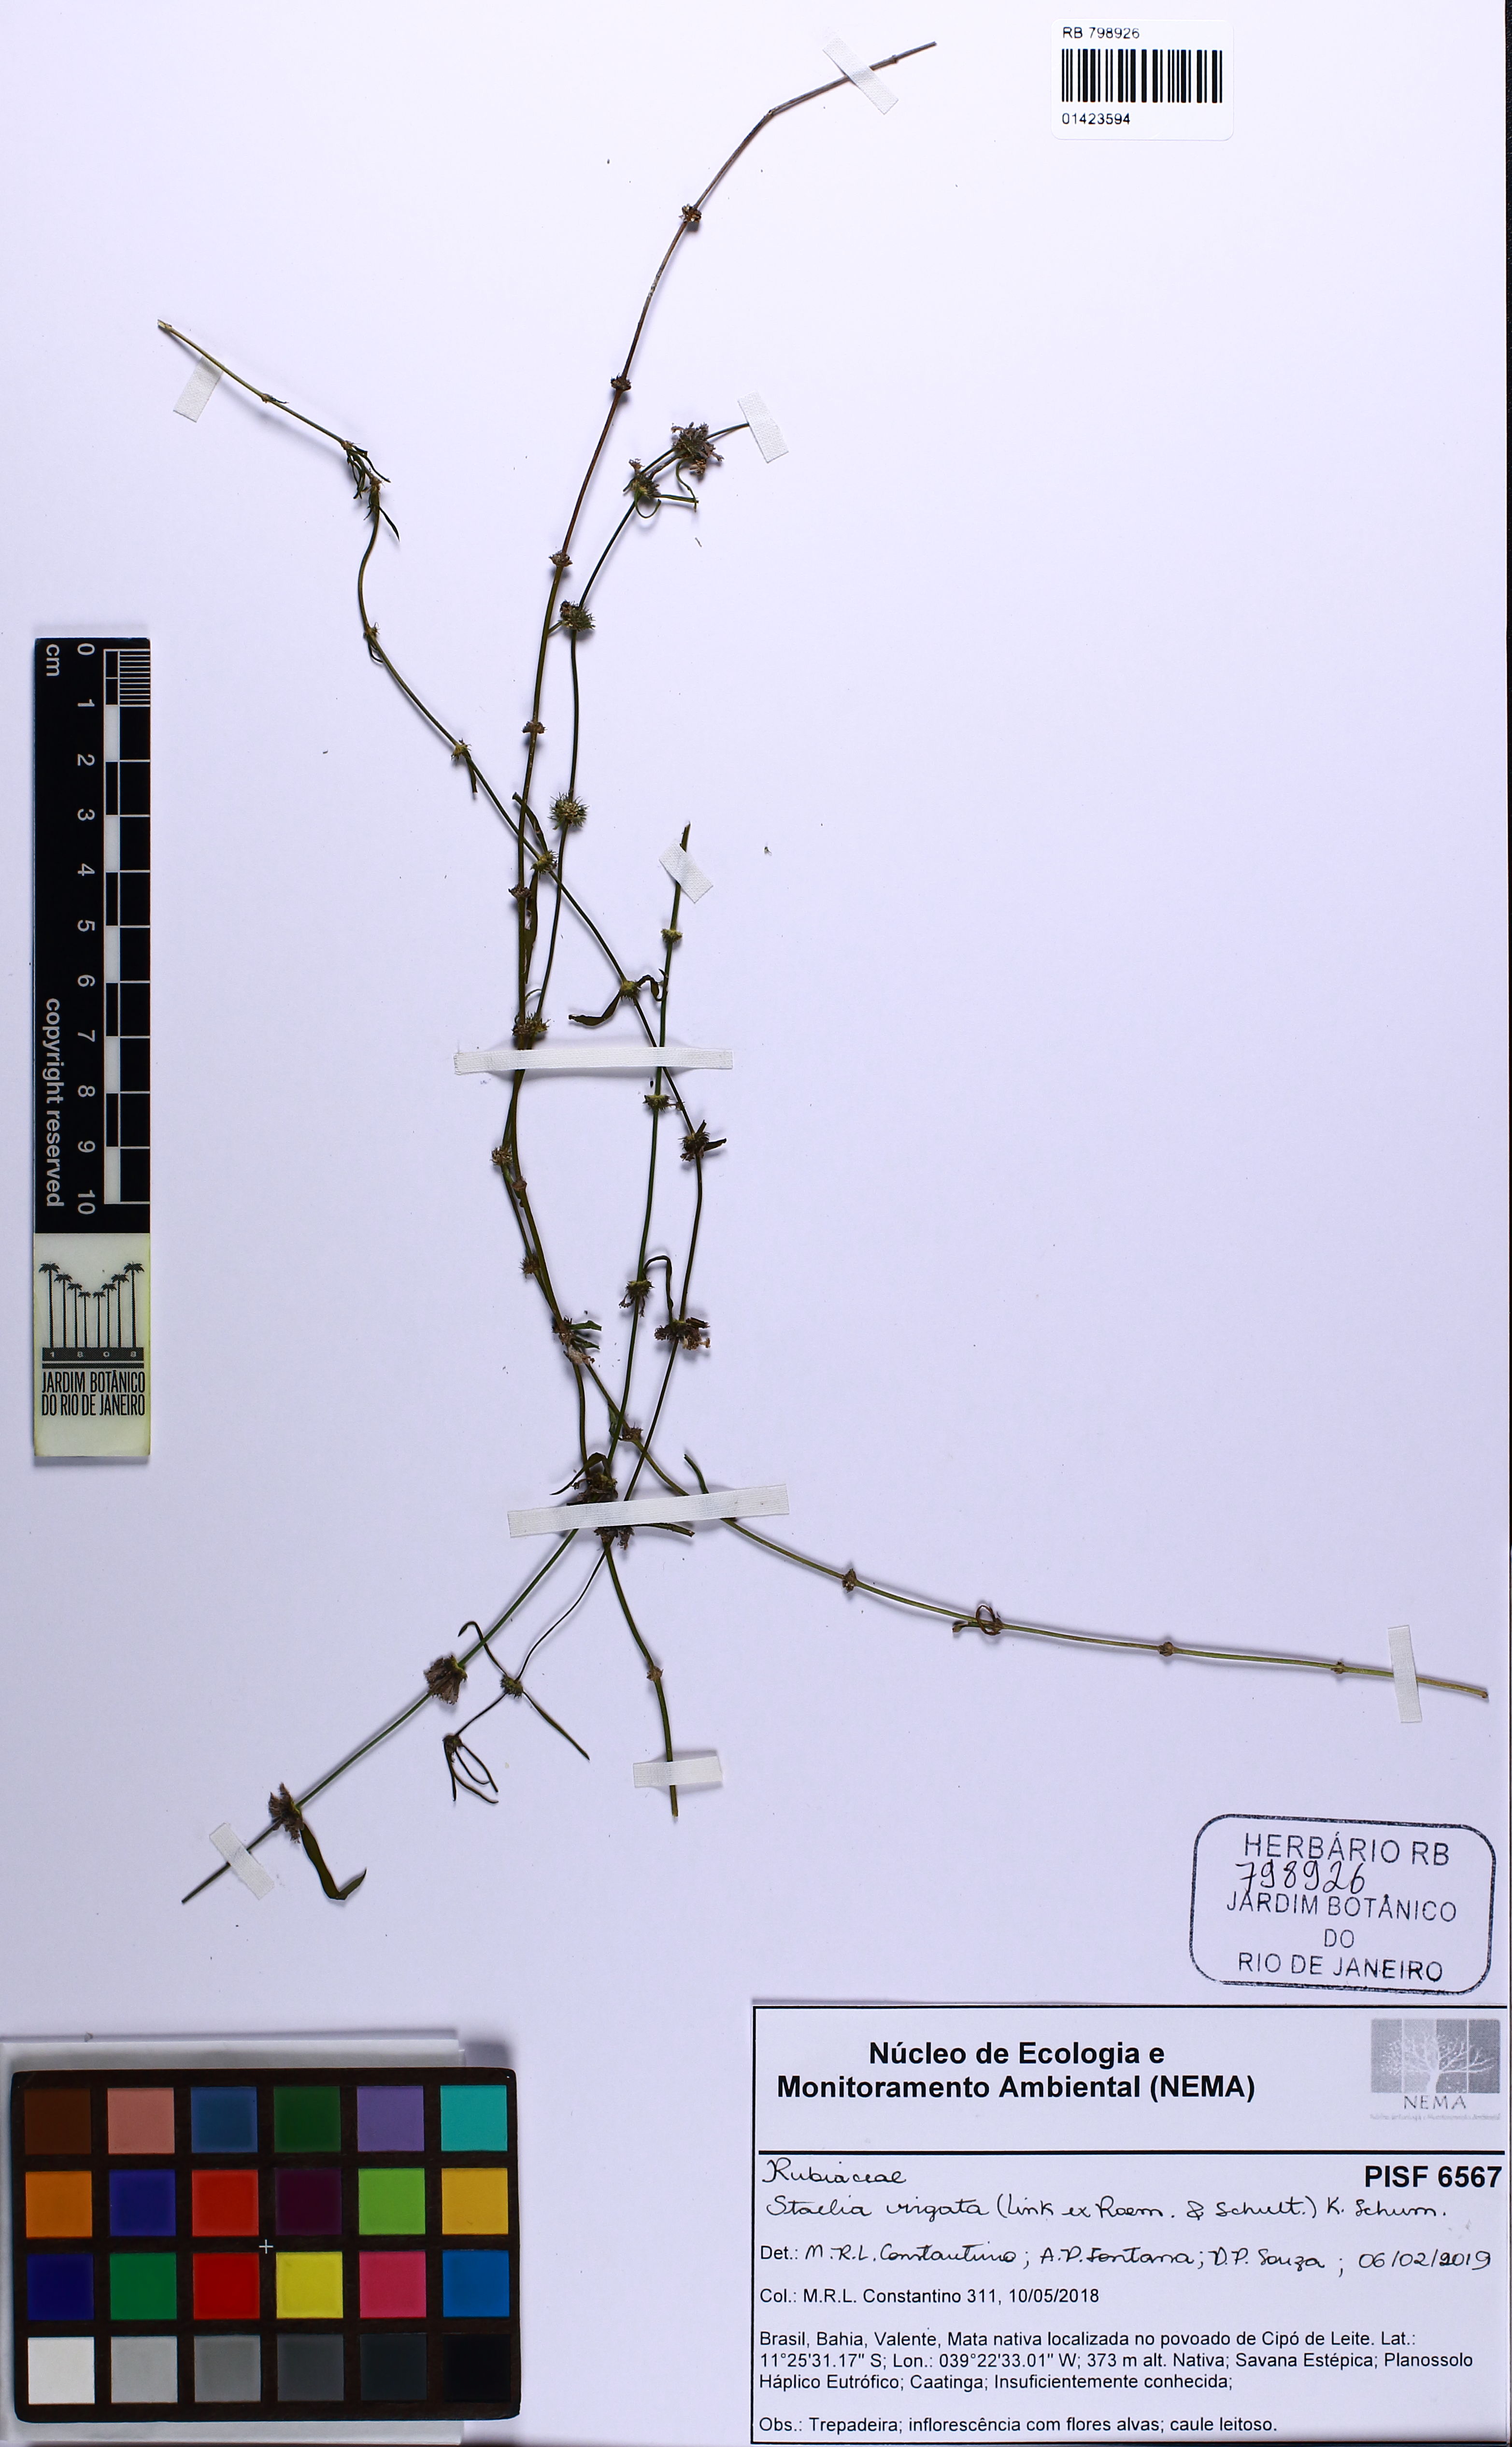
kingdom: Plantae
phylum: Tracheophyta
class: Magnoliopsida
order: Gentianales
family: Rubiaceae
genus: Staelia
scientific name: Staelia virgata
